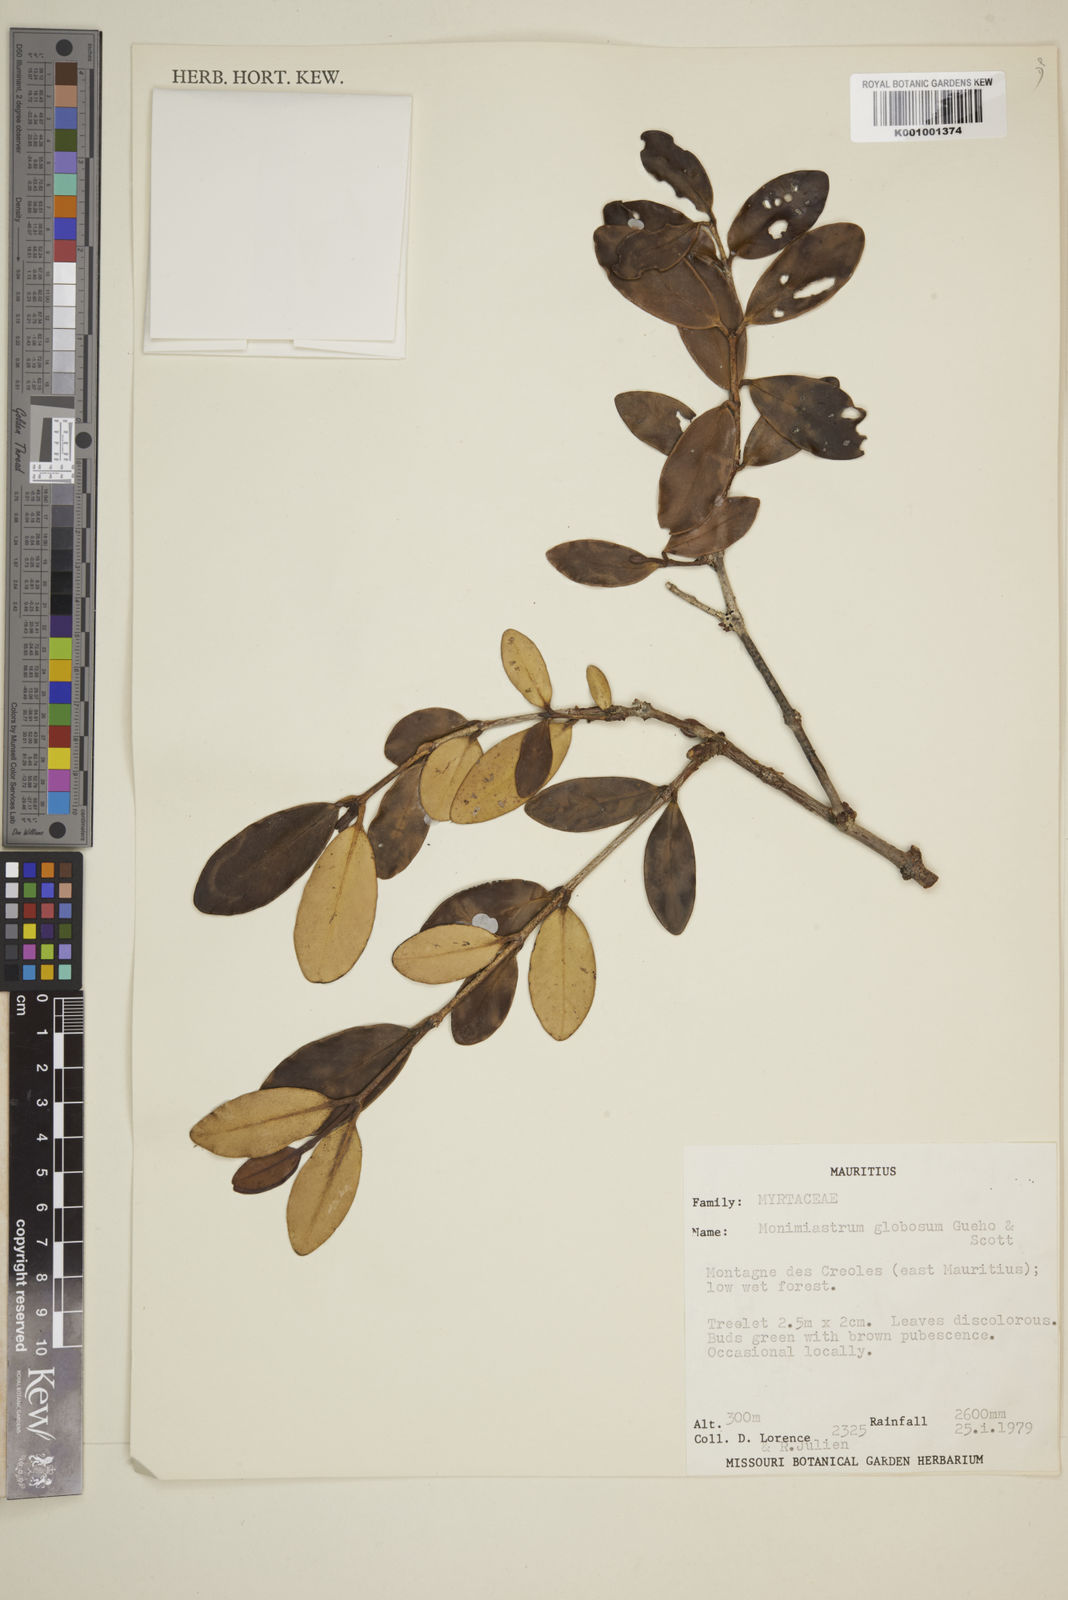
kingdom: Plantae
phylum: Tracheophyta
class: Magnoliopsida
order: Myrtales
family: Myrtaceae
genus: Eugenia
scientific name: Eugenia kanakana
